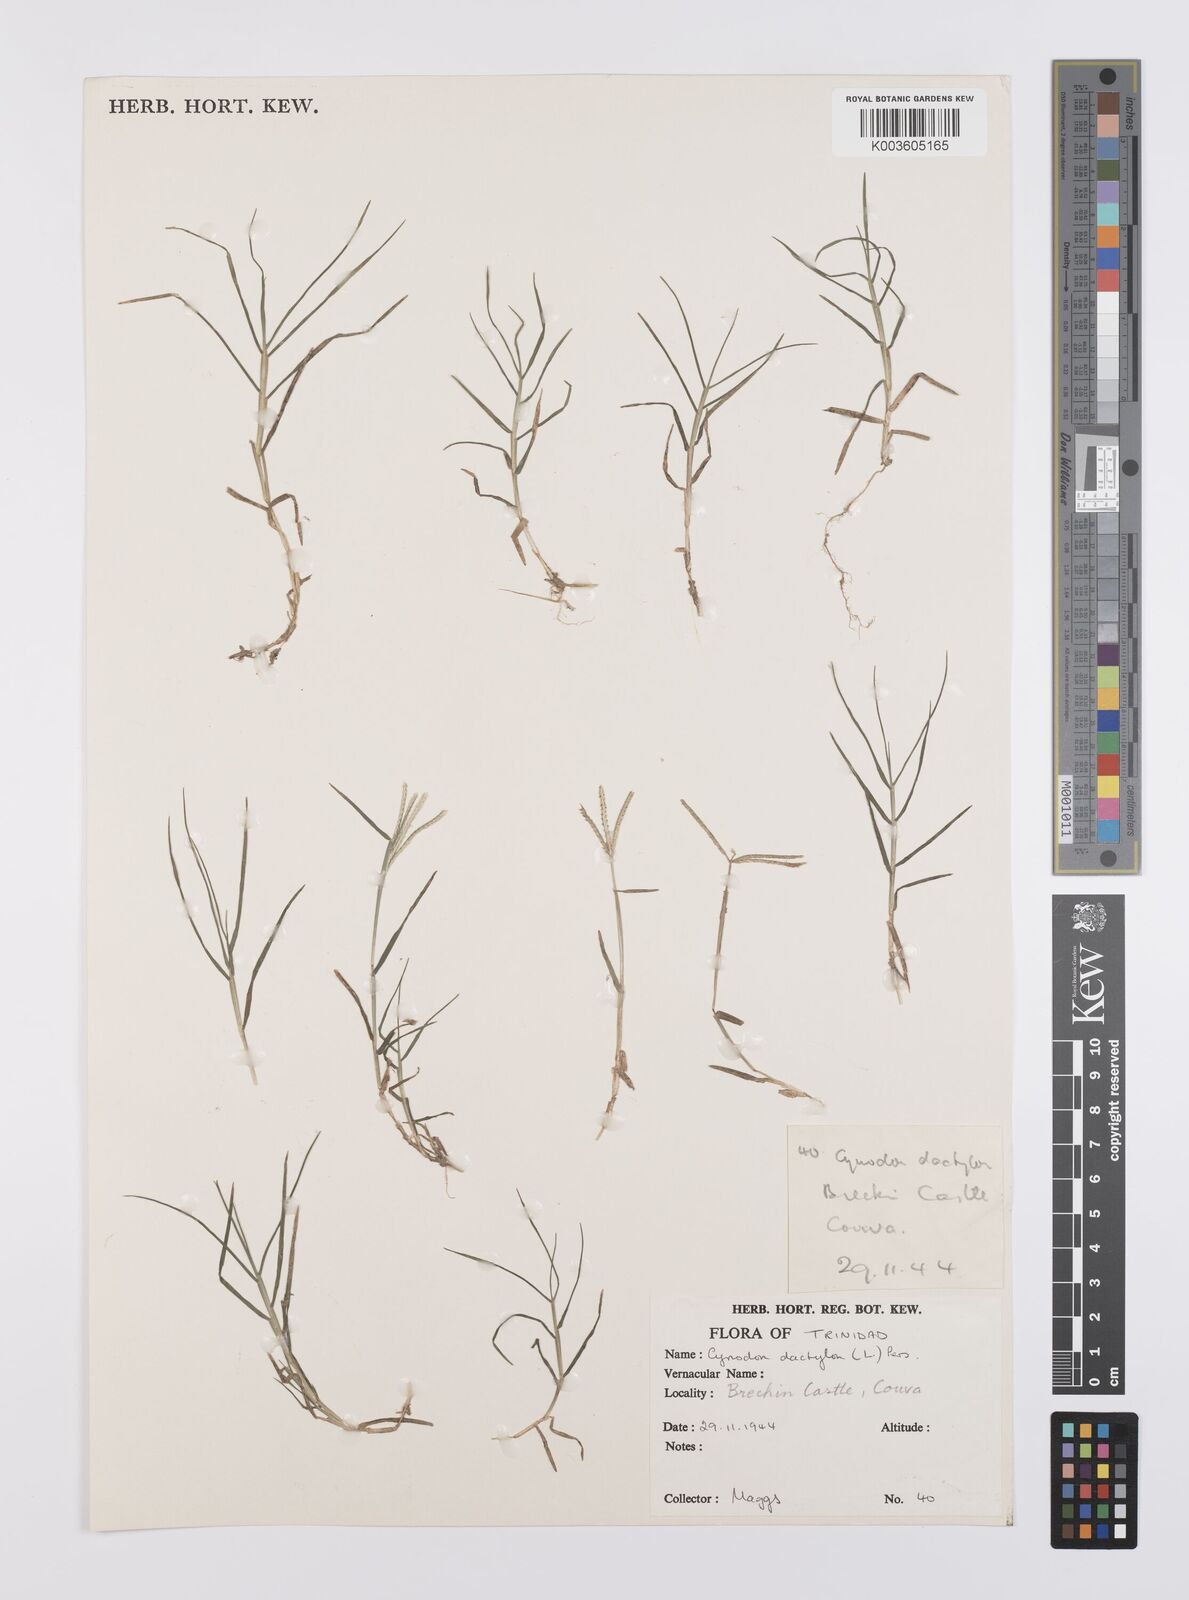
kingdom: Plantae
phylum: Tracheophyta
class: Liliopsida
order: Poales
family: Poaceae
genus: Cynodon
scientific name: Cynodon dactylon
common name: Bermuda grass
